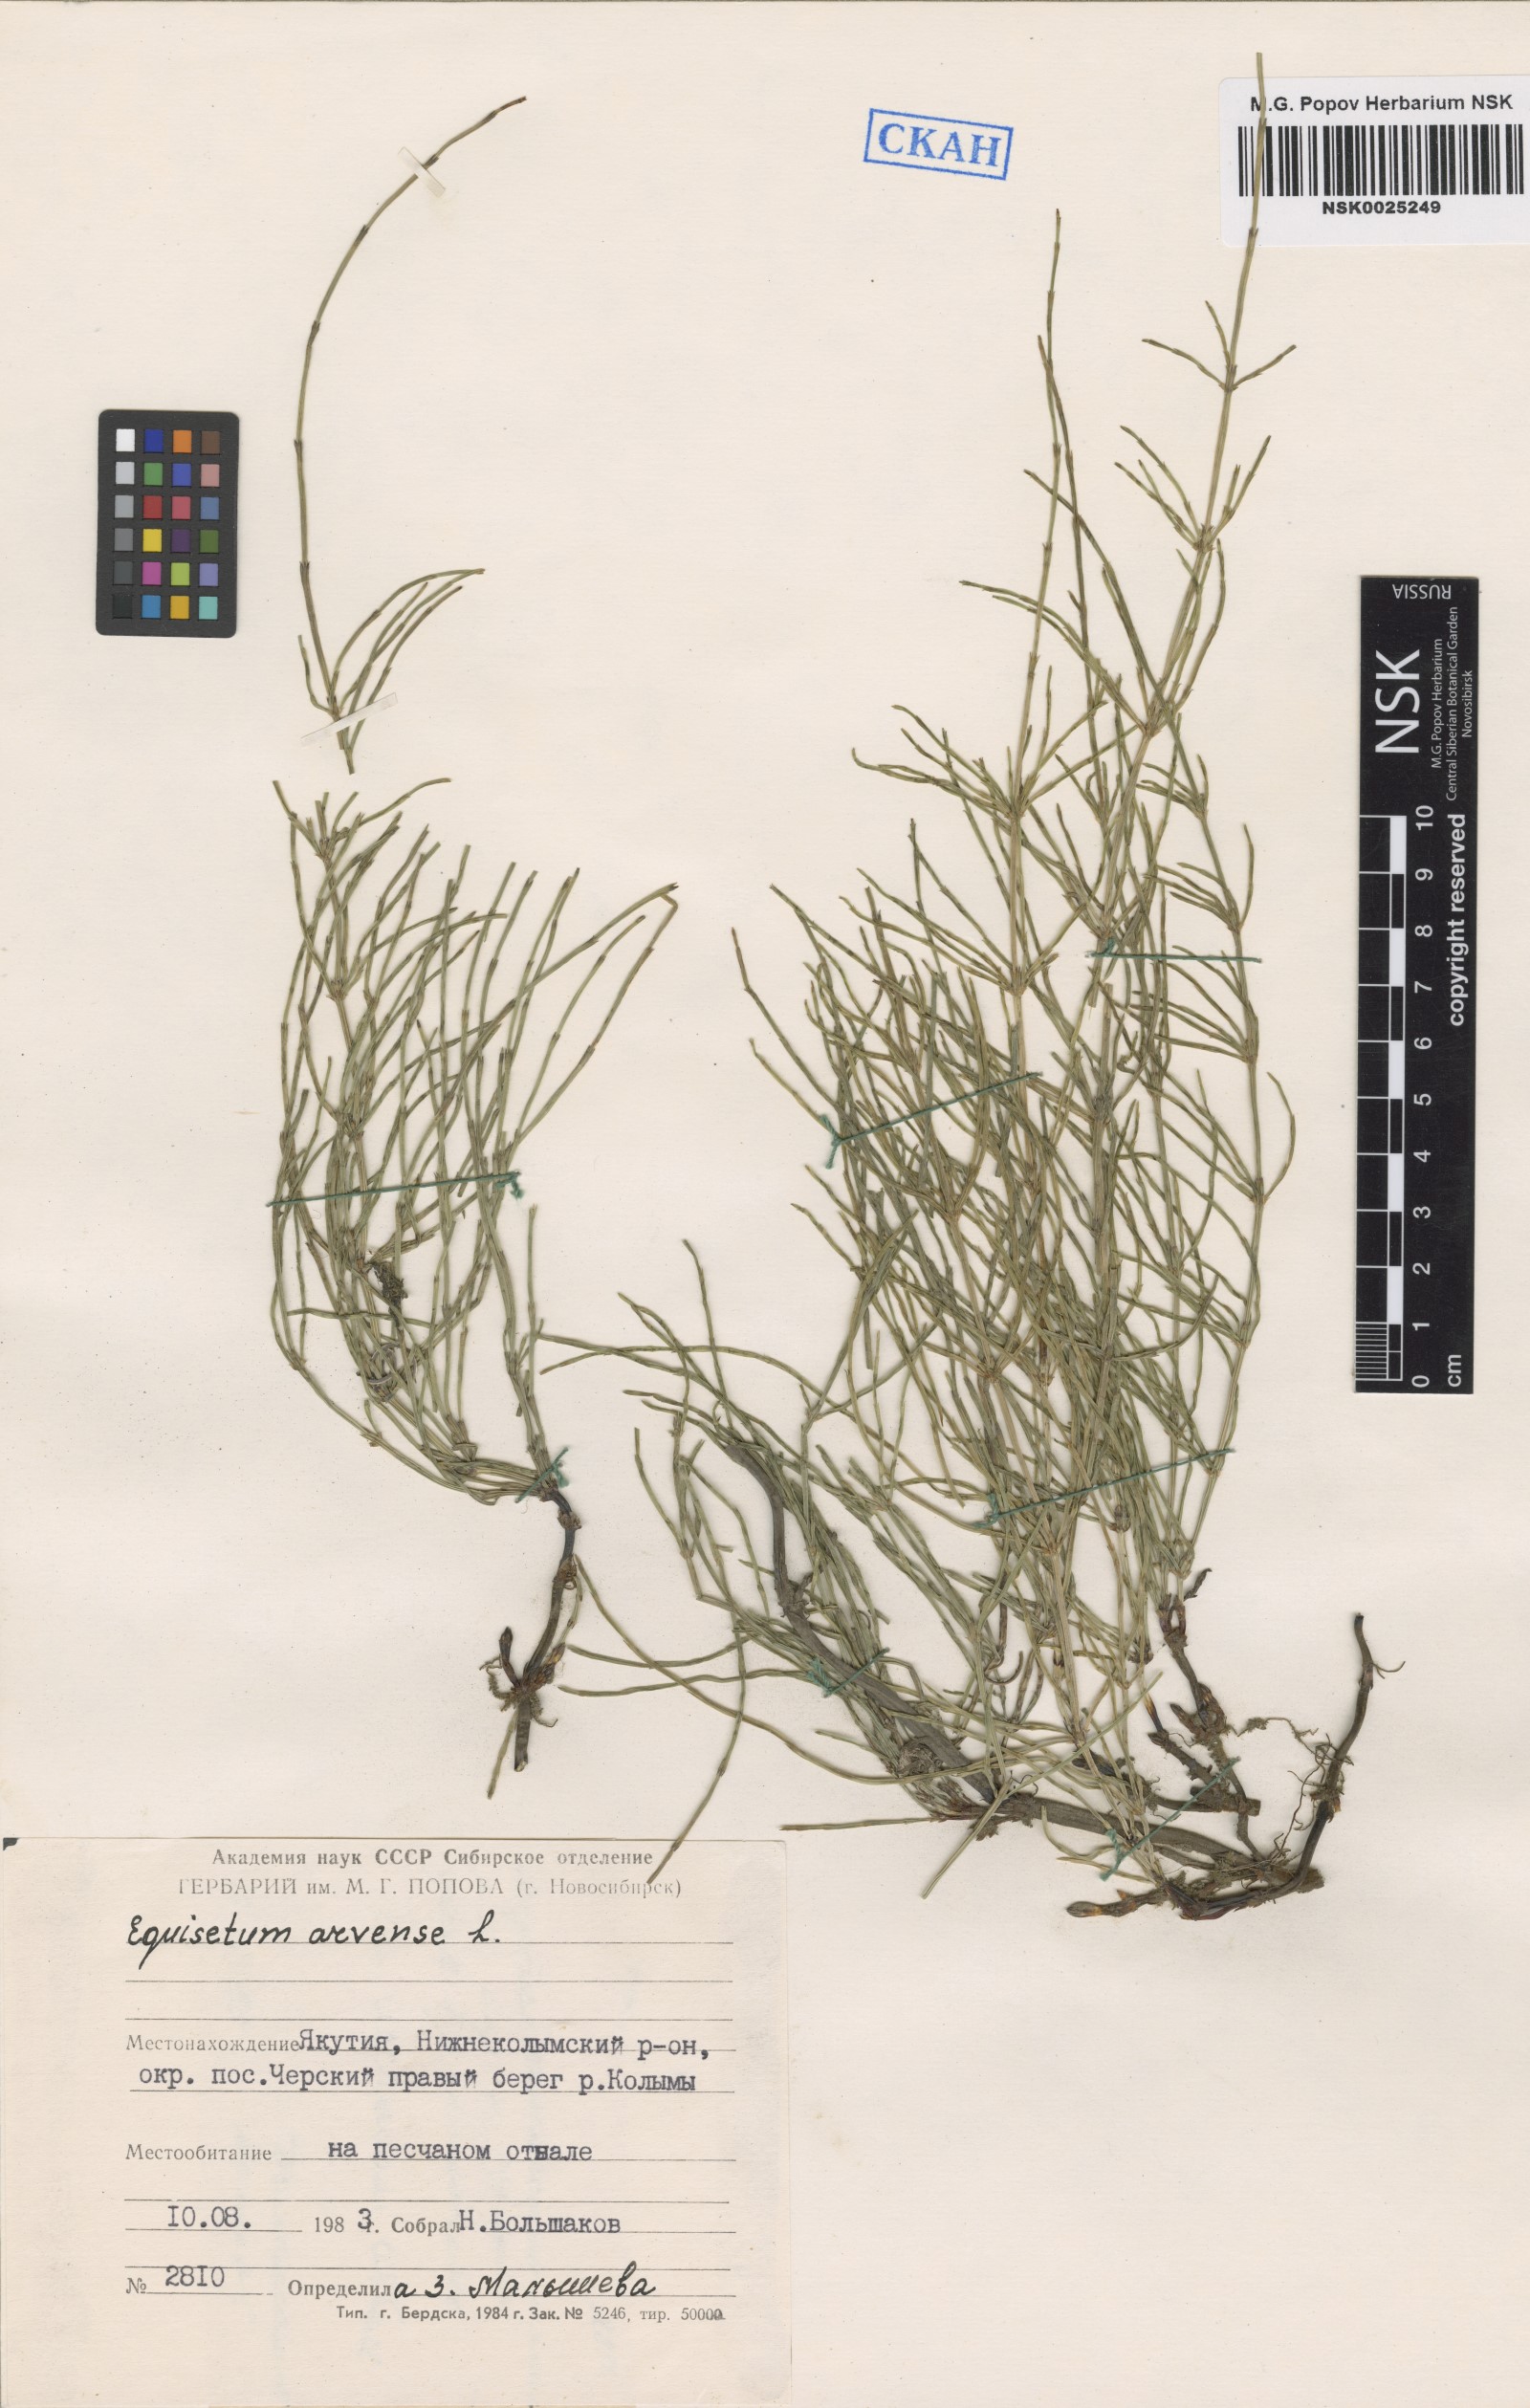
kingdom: Plantae
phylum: Tracheophyta
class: Polypodiopsida
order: Equisetales
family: Equisetaceae
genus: Equisetum
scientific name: Equisetum arvense
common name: Field horsetail
